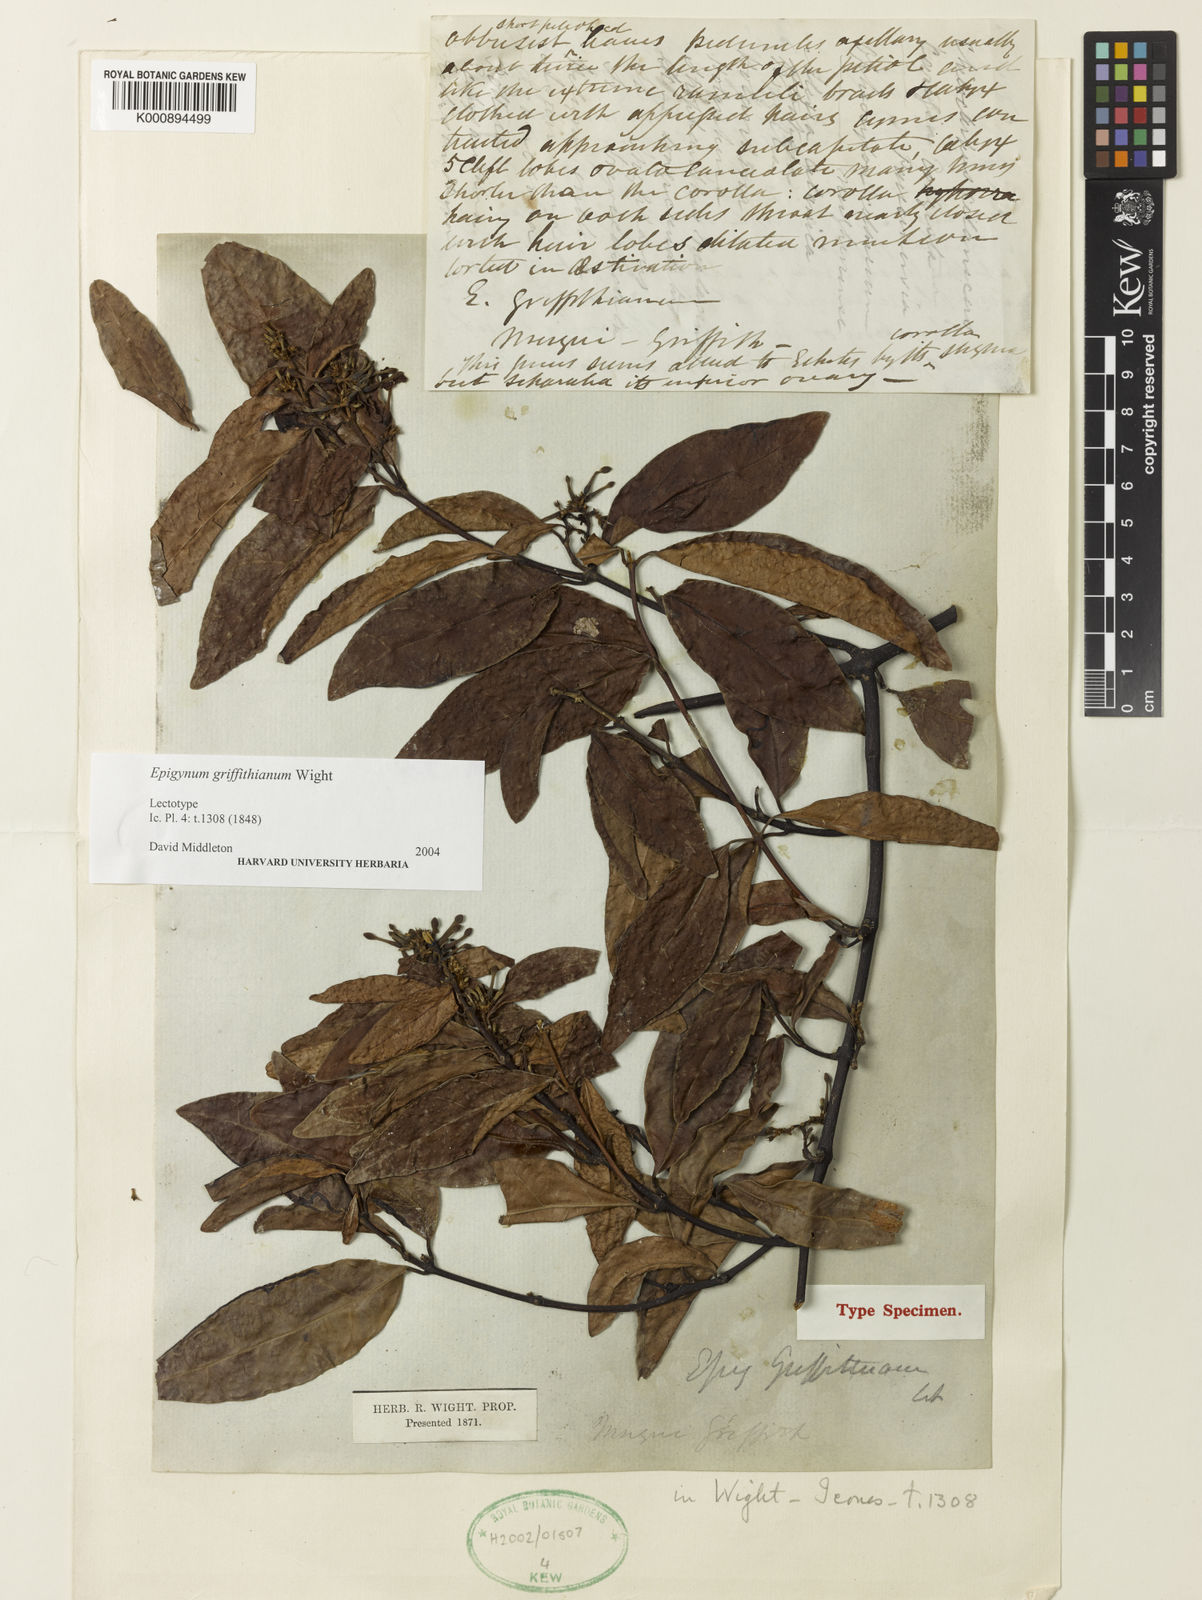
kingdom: Plantae
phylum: Tracheophyta
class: Magnoliopsida
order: Gentianales
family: Apocynaceae
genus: Epigynum
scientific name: Epigynum griffithianum
